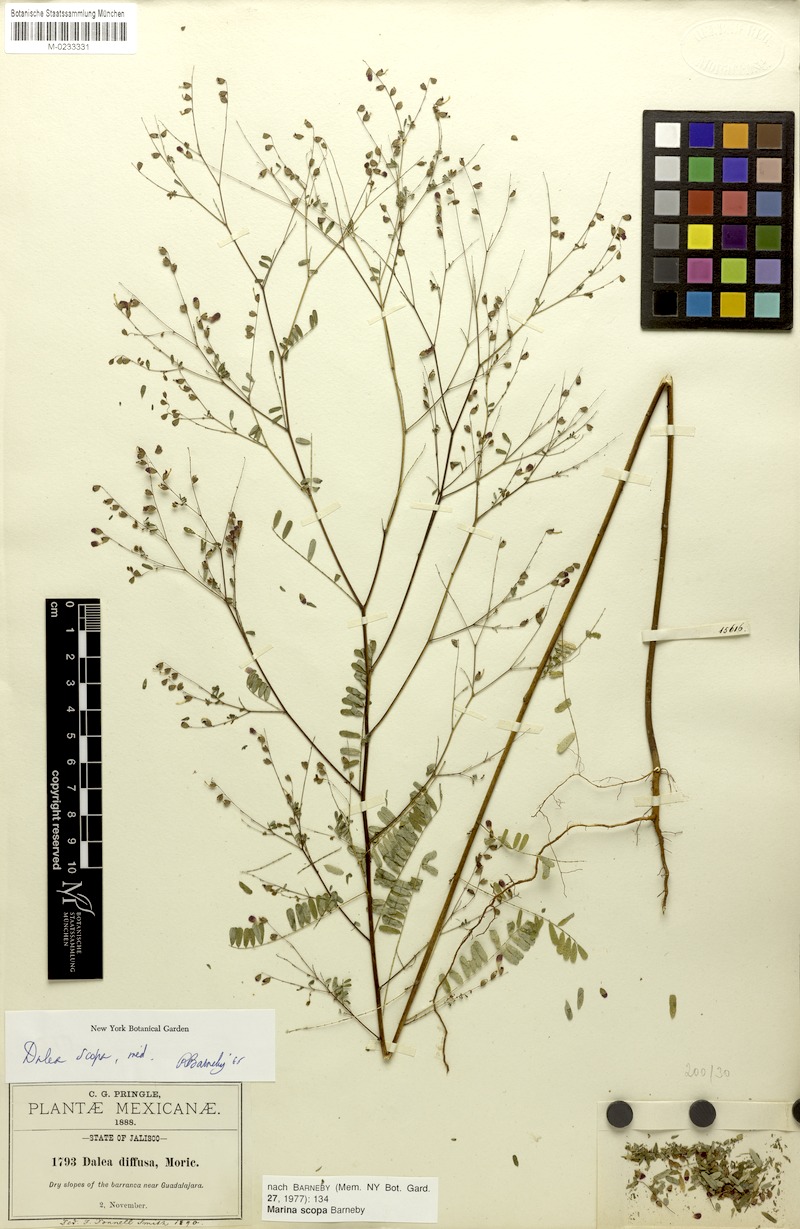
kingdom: Plantae
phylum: Tracheophyta
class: Magnoliopsida
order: Fabales
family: Fabaceae
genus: Marina
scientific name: Marina scopa
